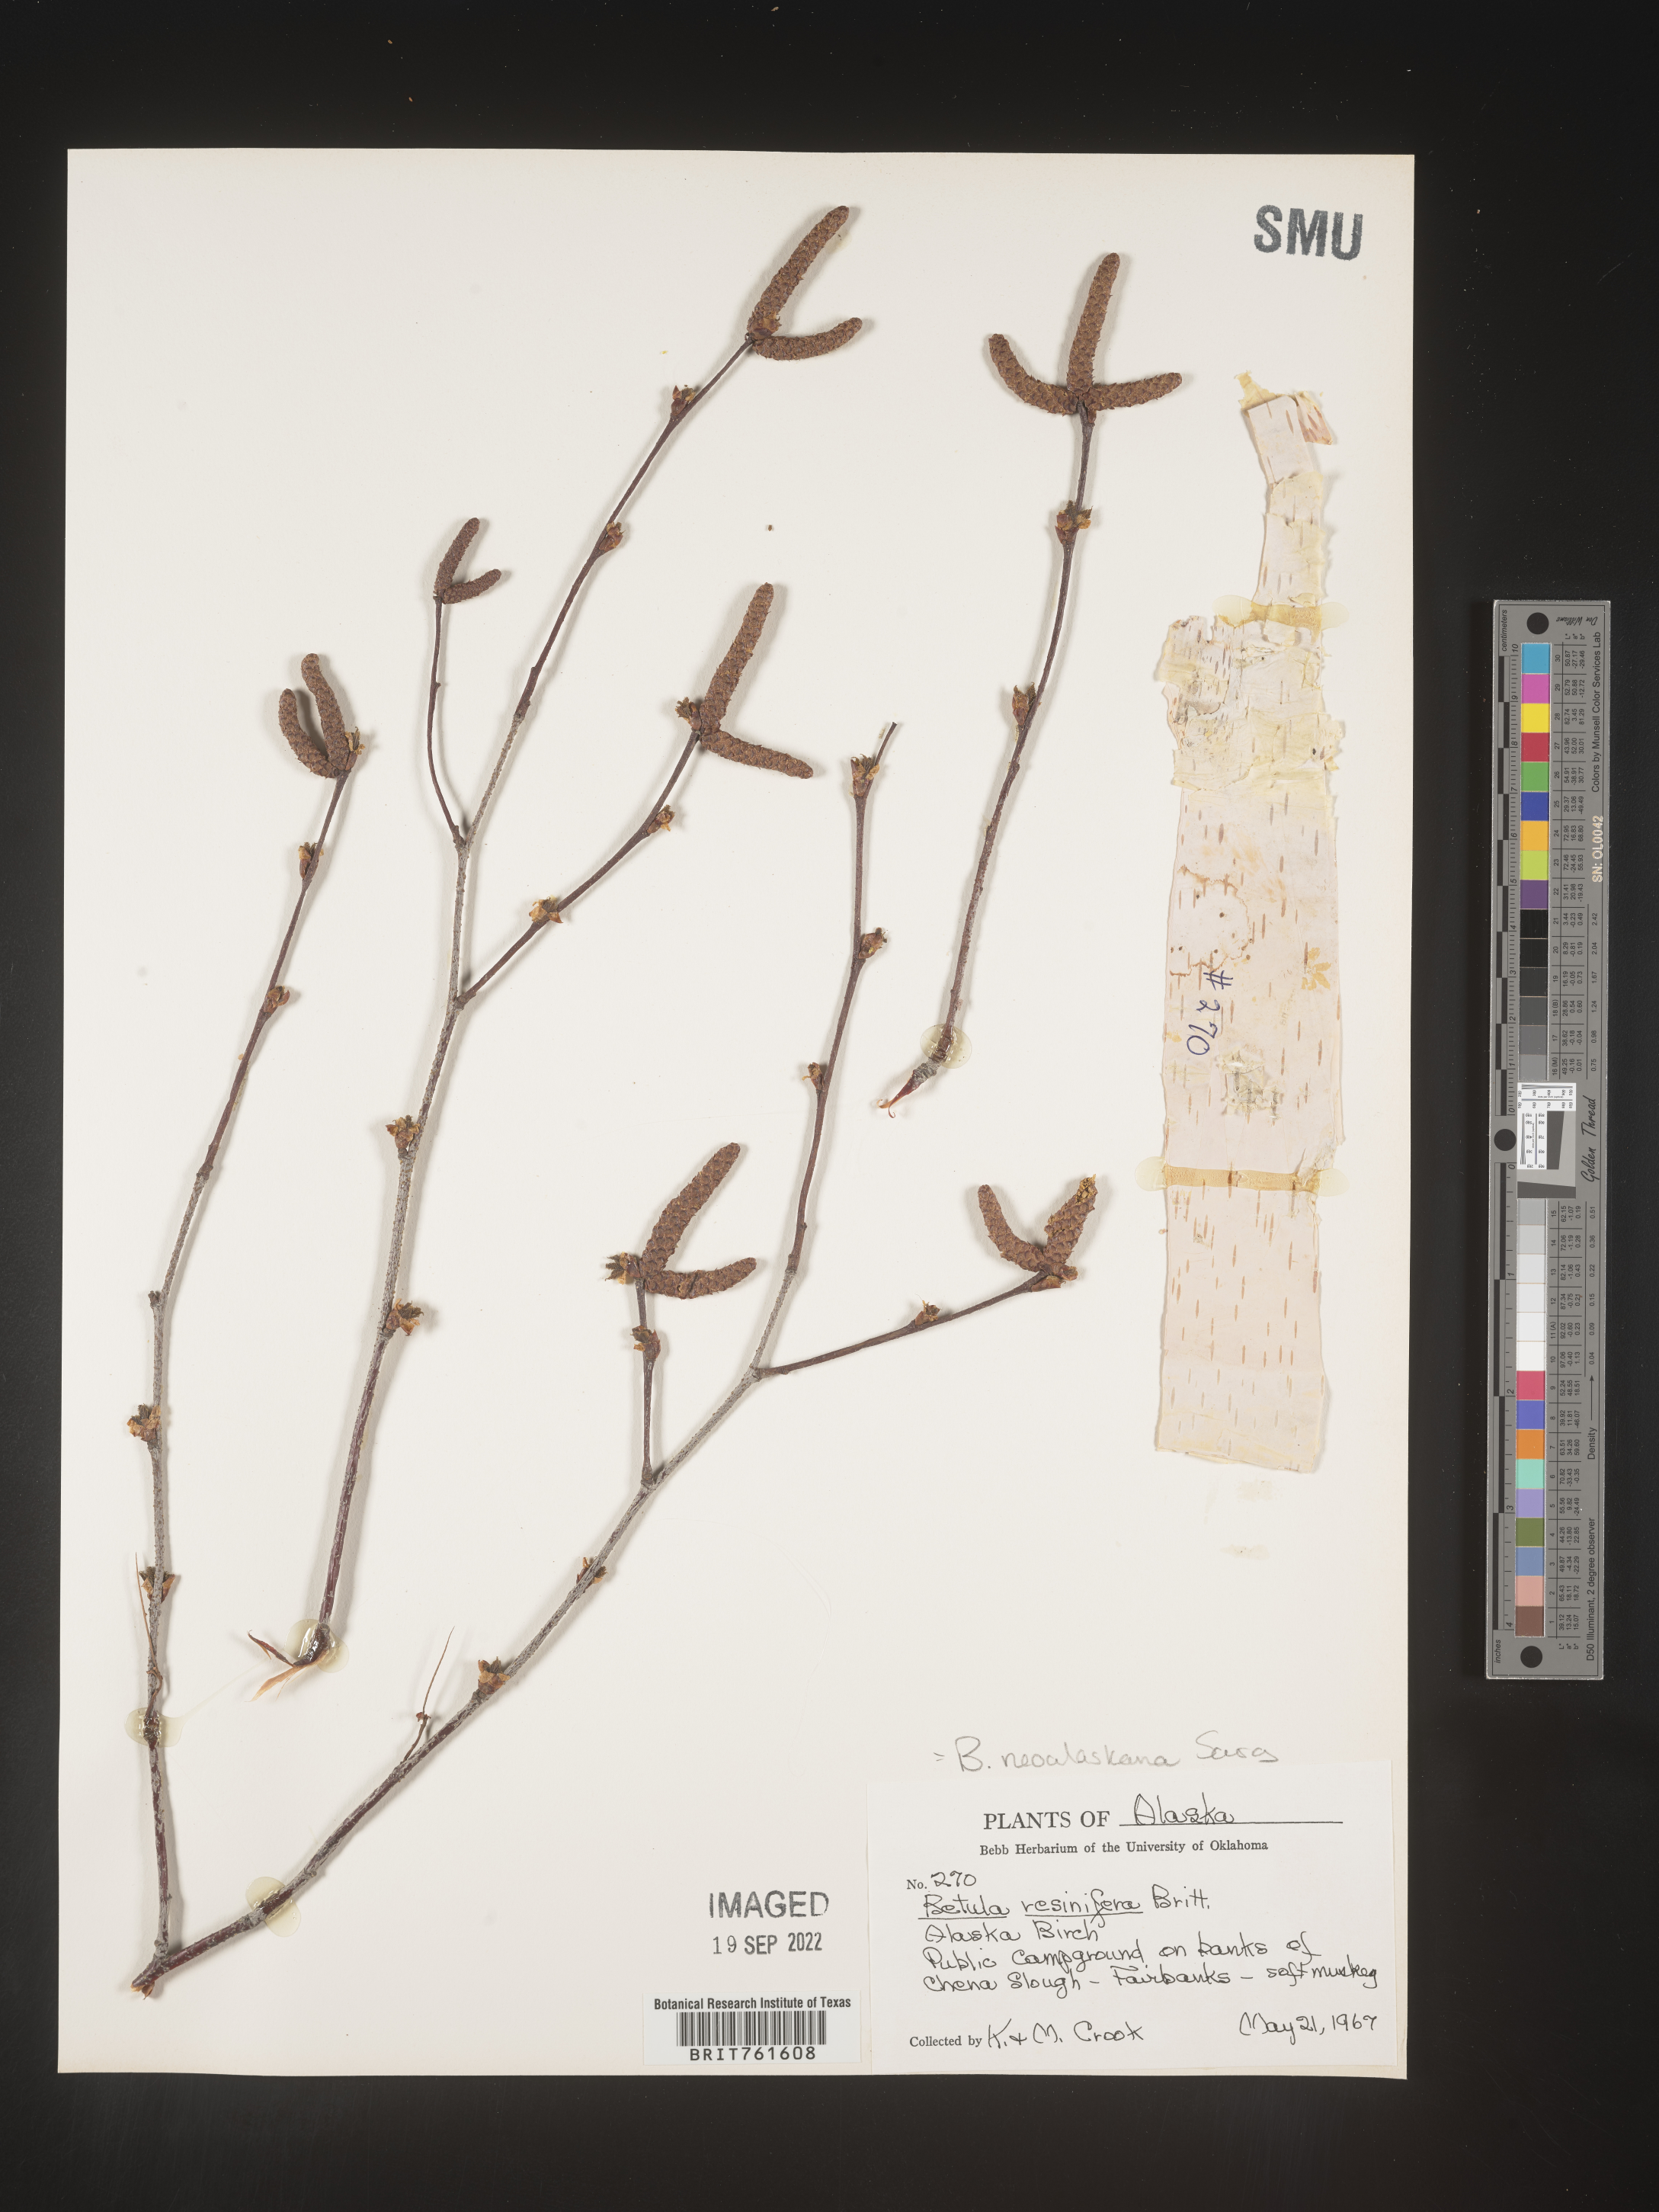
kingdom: Plantae
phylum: Tracheophyta
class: Magnoliopsida
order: Fagales
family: Betulaceae
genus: Betula
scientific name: Betula pendula
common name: Silver birch
